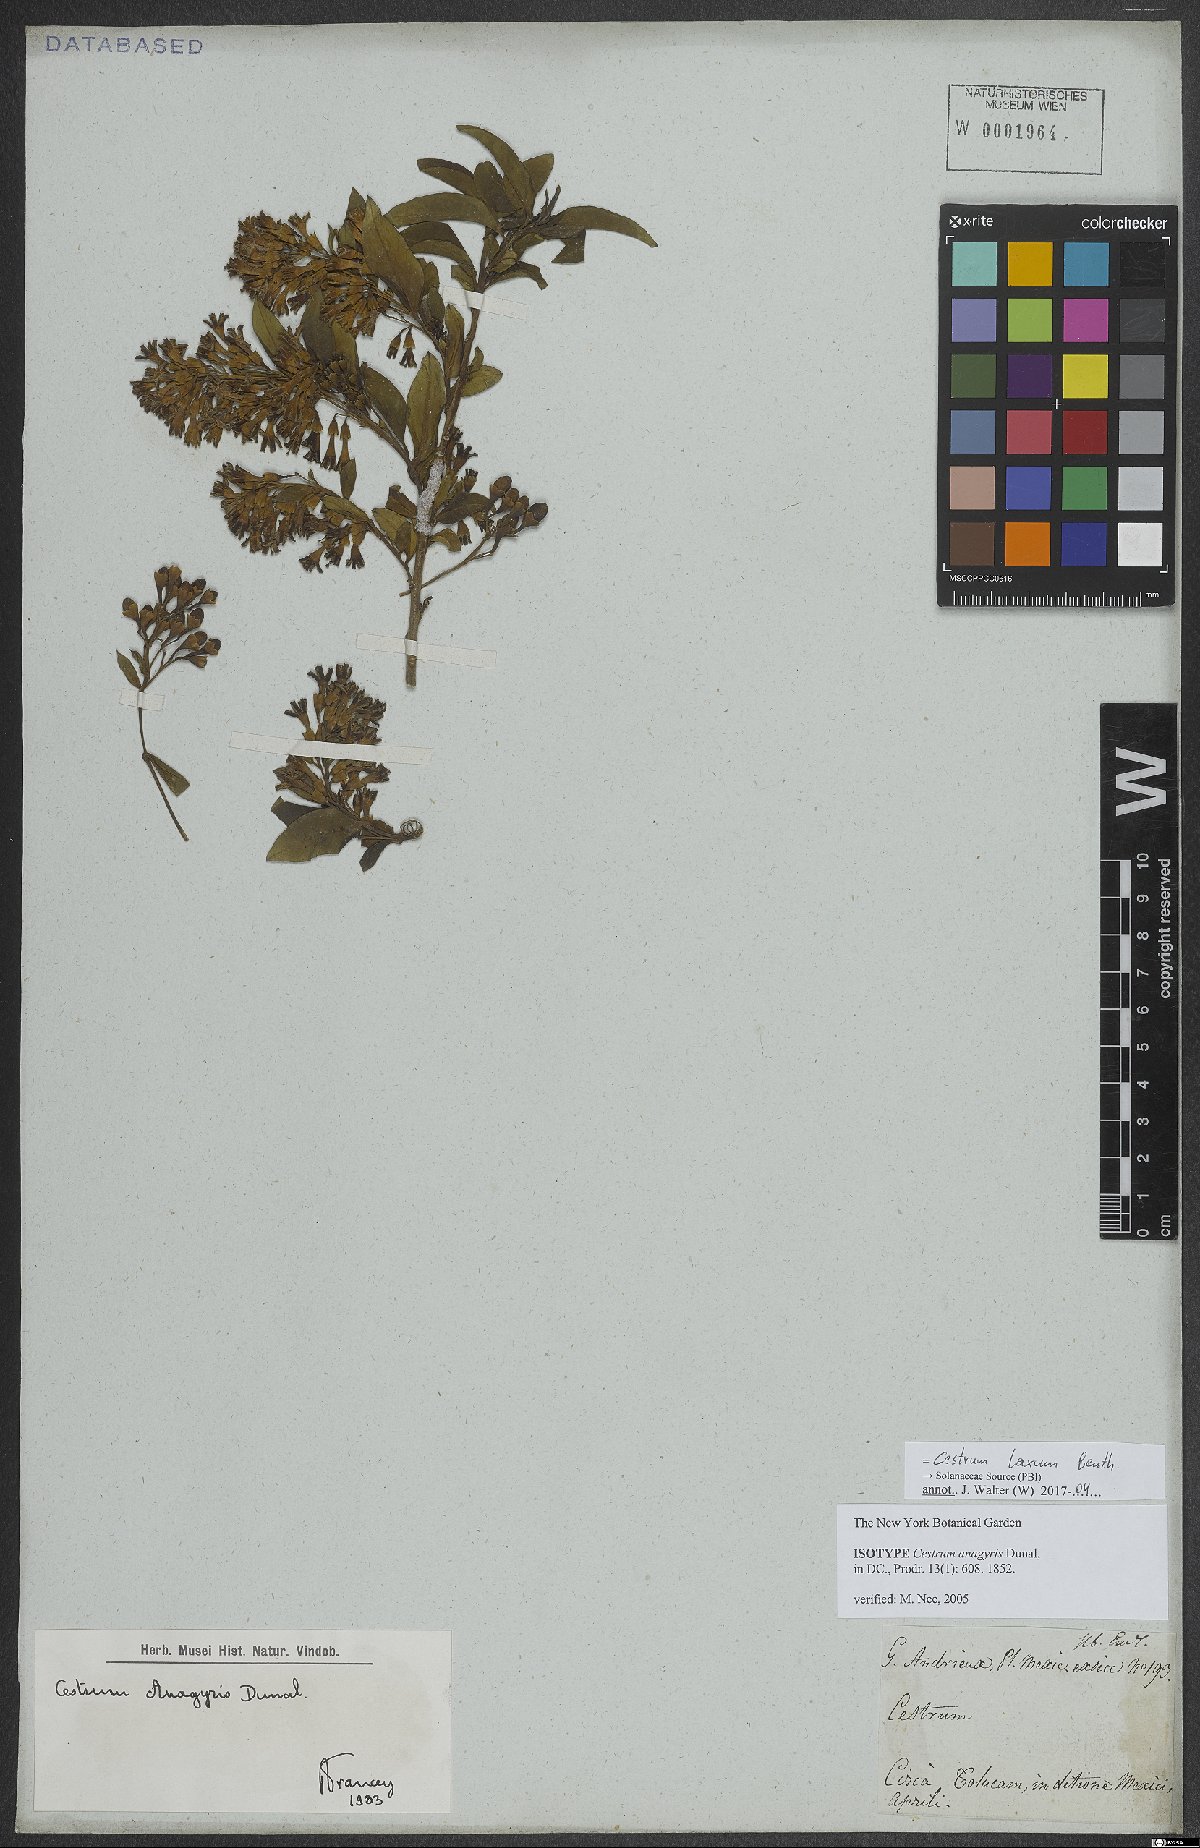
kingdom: Plantae
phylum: Tracheophyta
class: Magnoliopsida
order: Solanales
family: Solanaceae
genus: Cestrum
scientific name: Cestrum laxum
